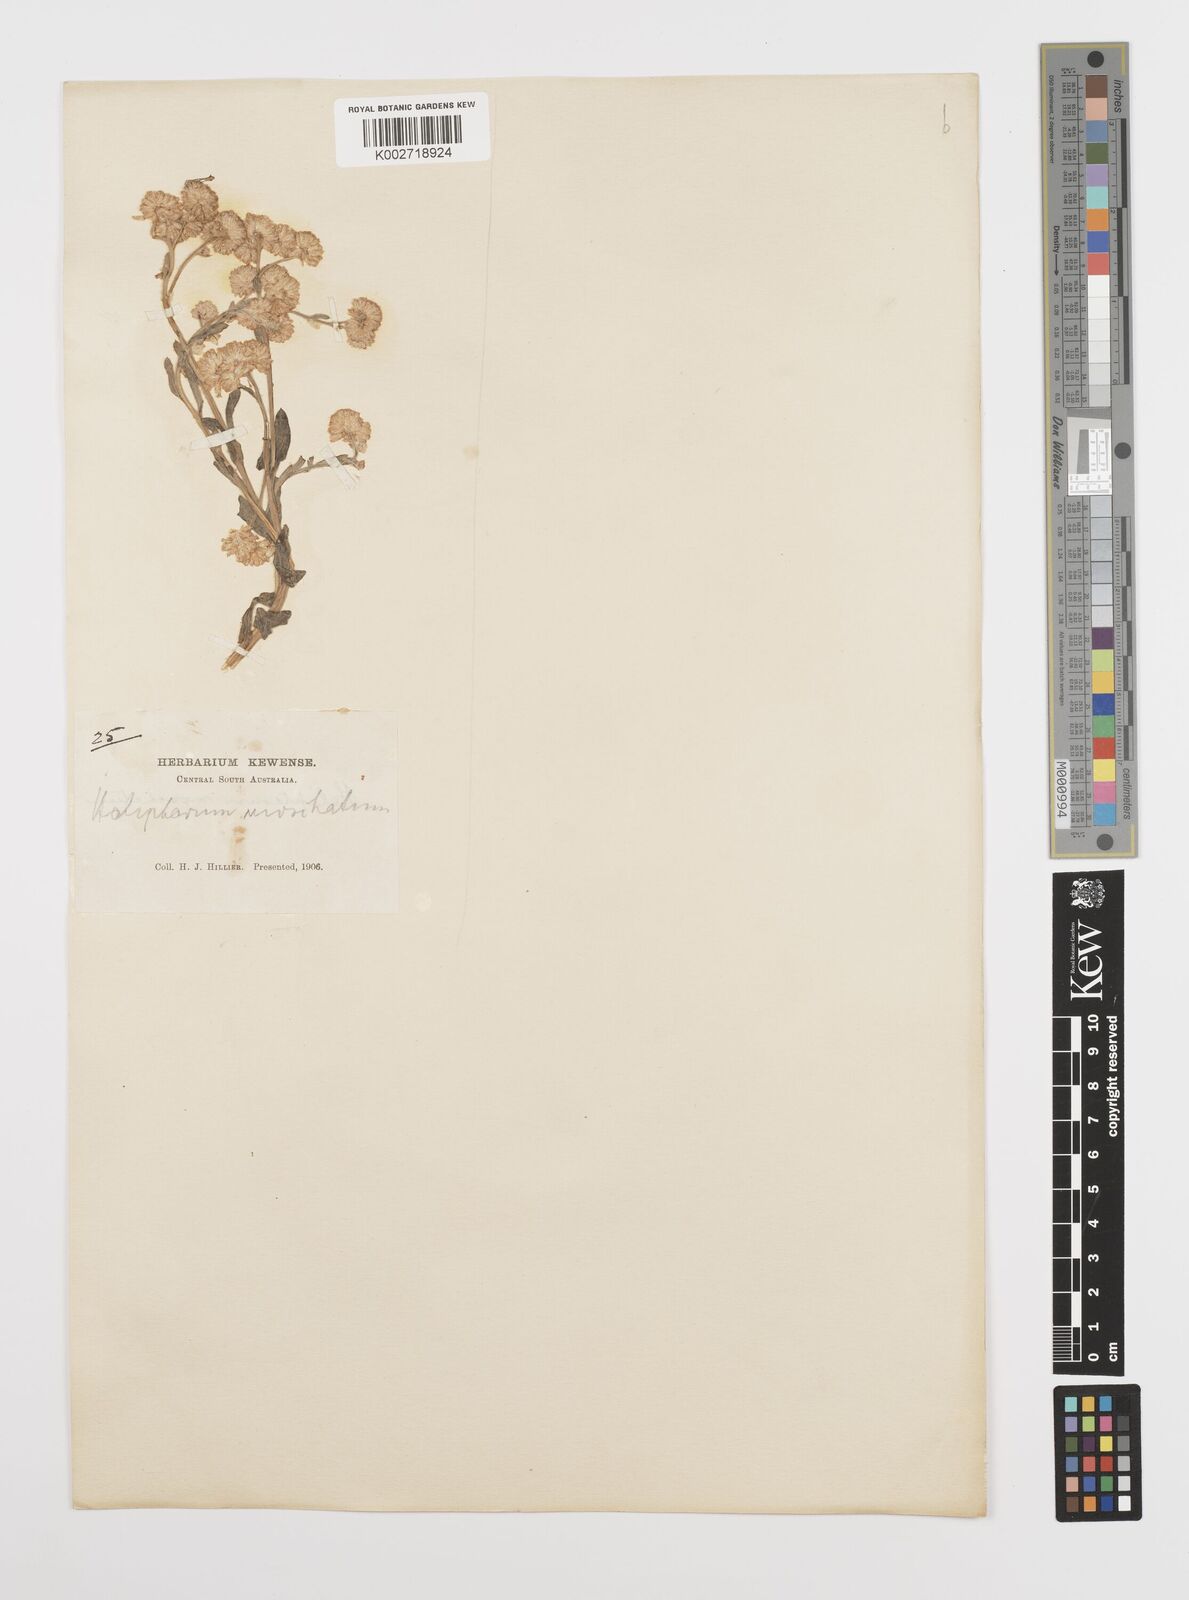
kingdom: Plantae
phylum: Tracheophyta
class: Magnoliopsida
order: Asterales
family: Asteraceae
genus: Rhodanthe
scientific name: Rhodanthe moschata
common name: Musk sunray
